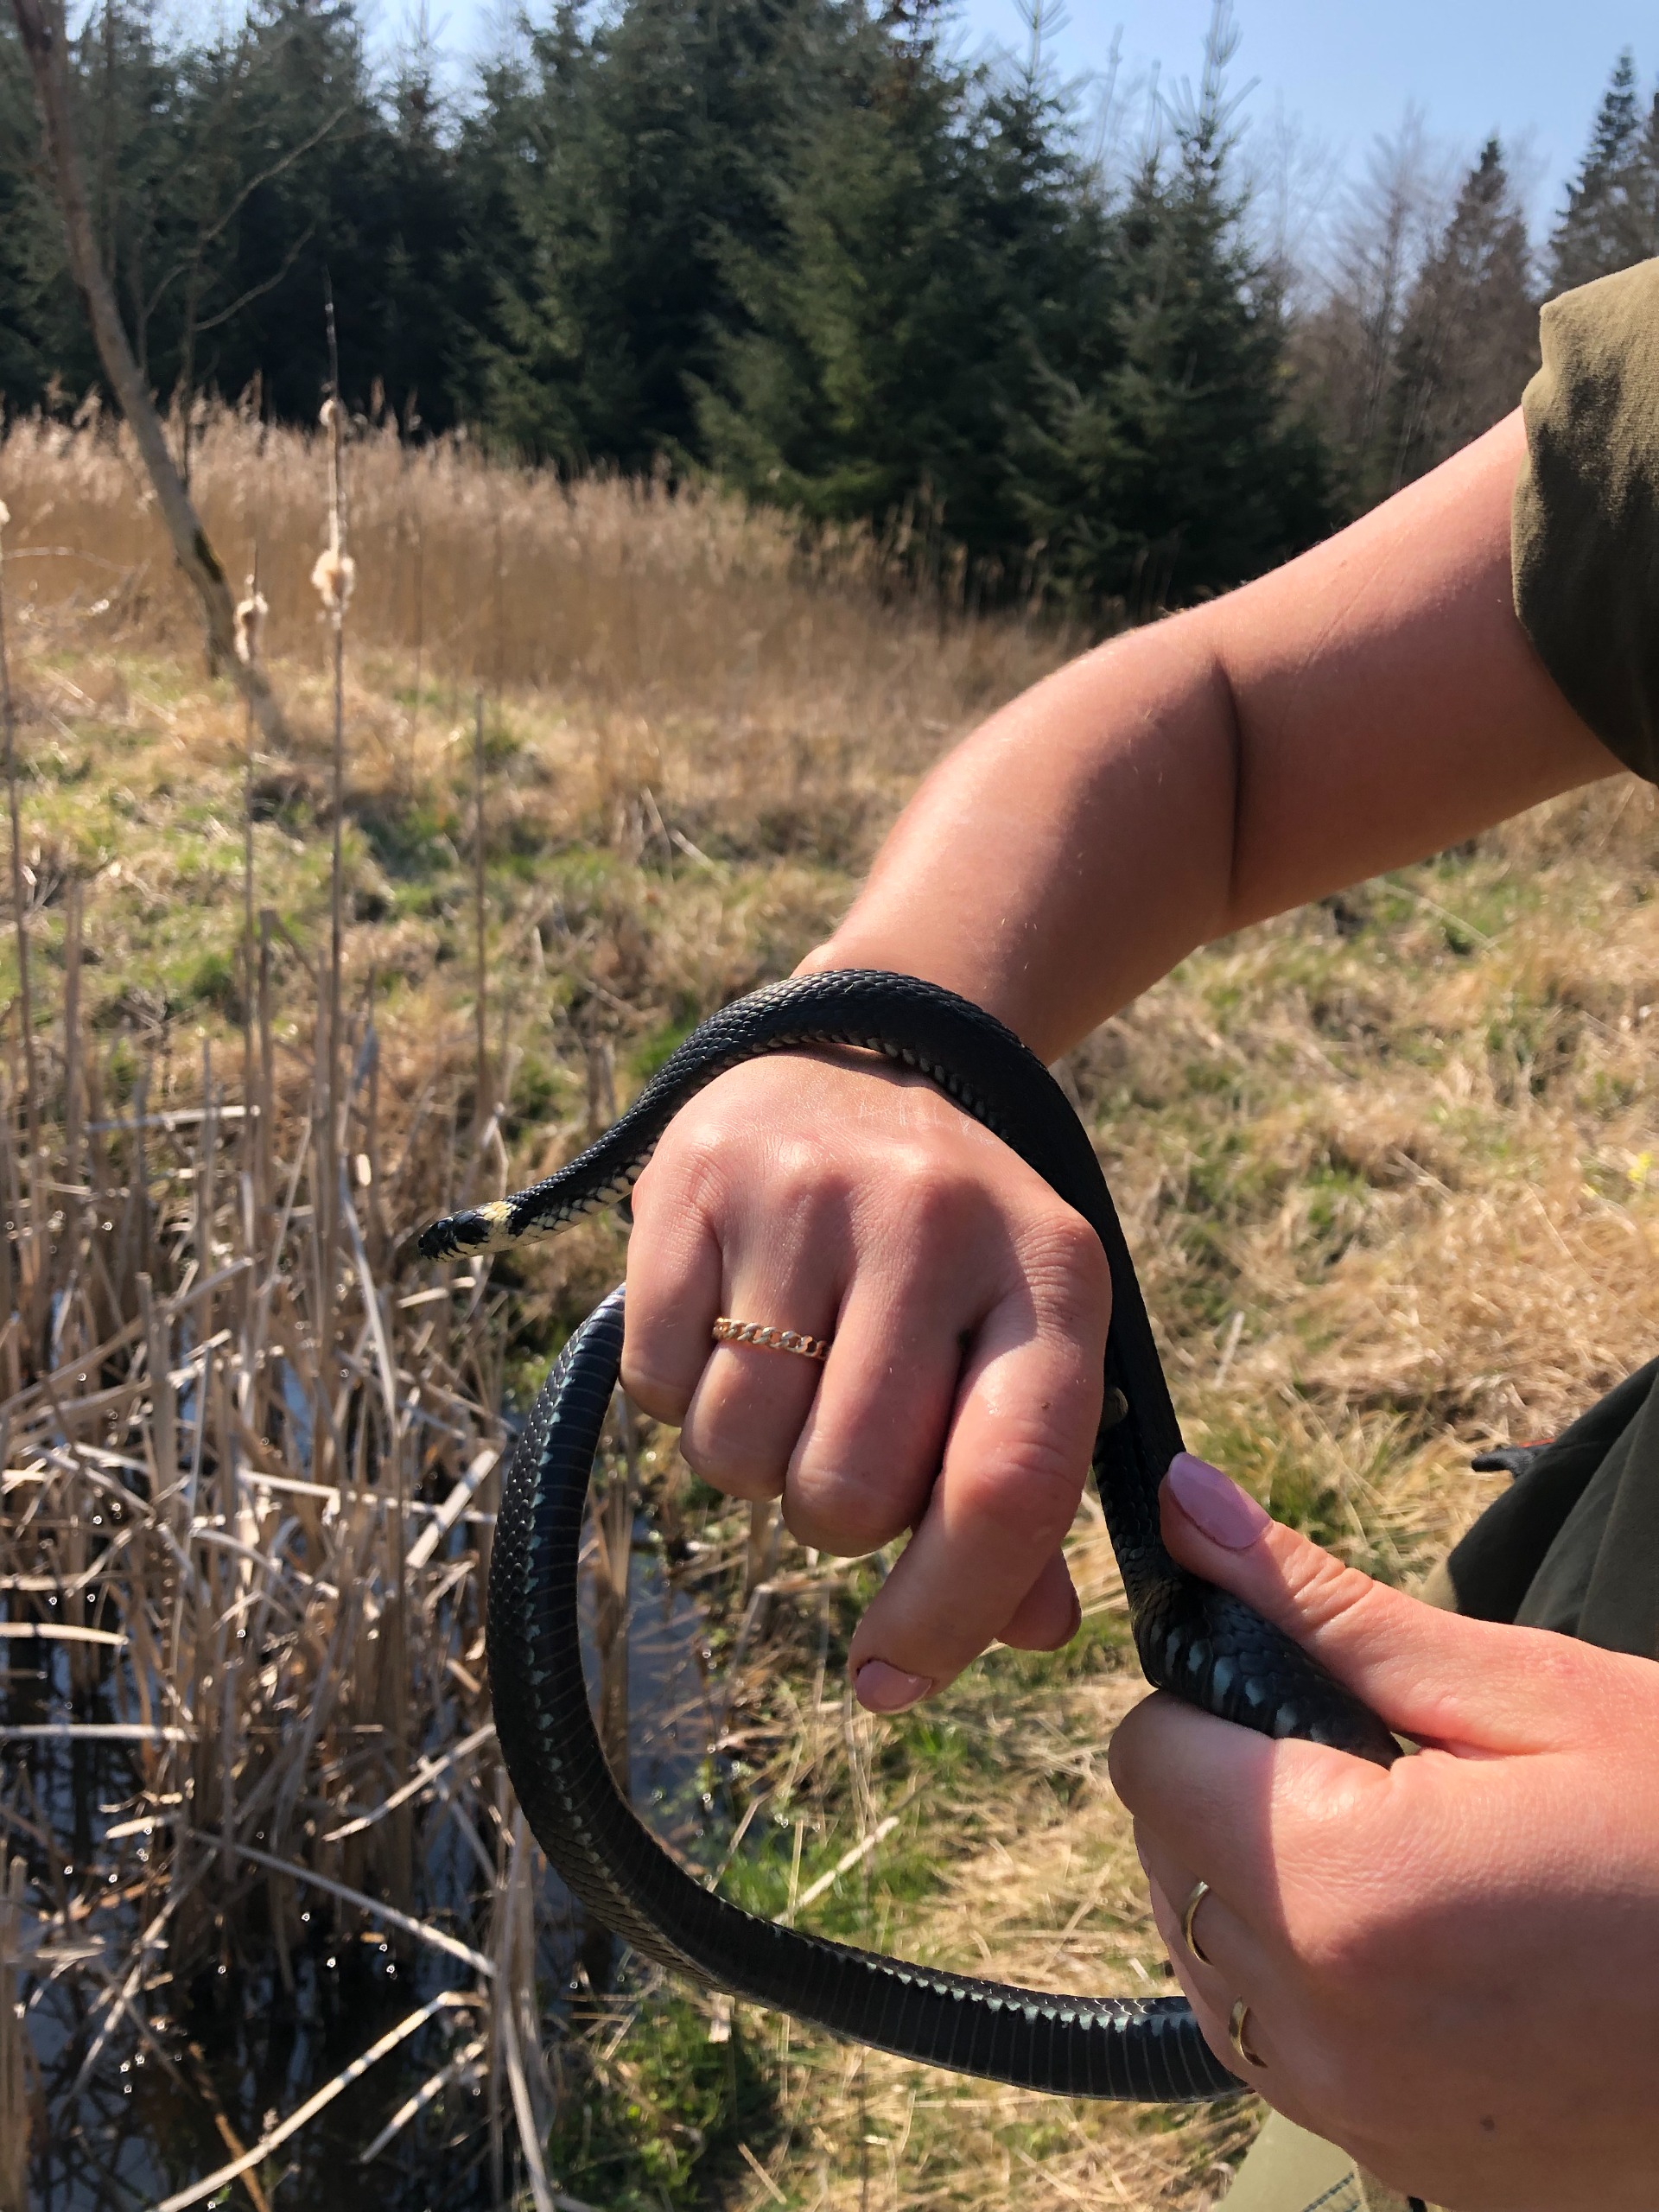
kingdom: Animalia
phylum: Chordata
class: Squamata
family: Colubridae
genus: Natrix
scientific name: Natrix natrix
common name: Snog
